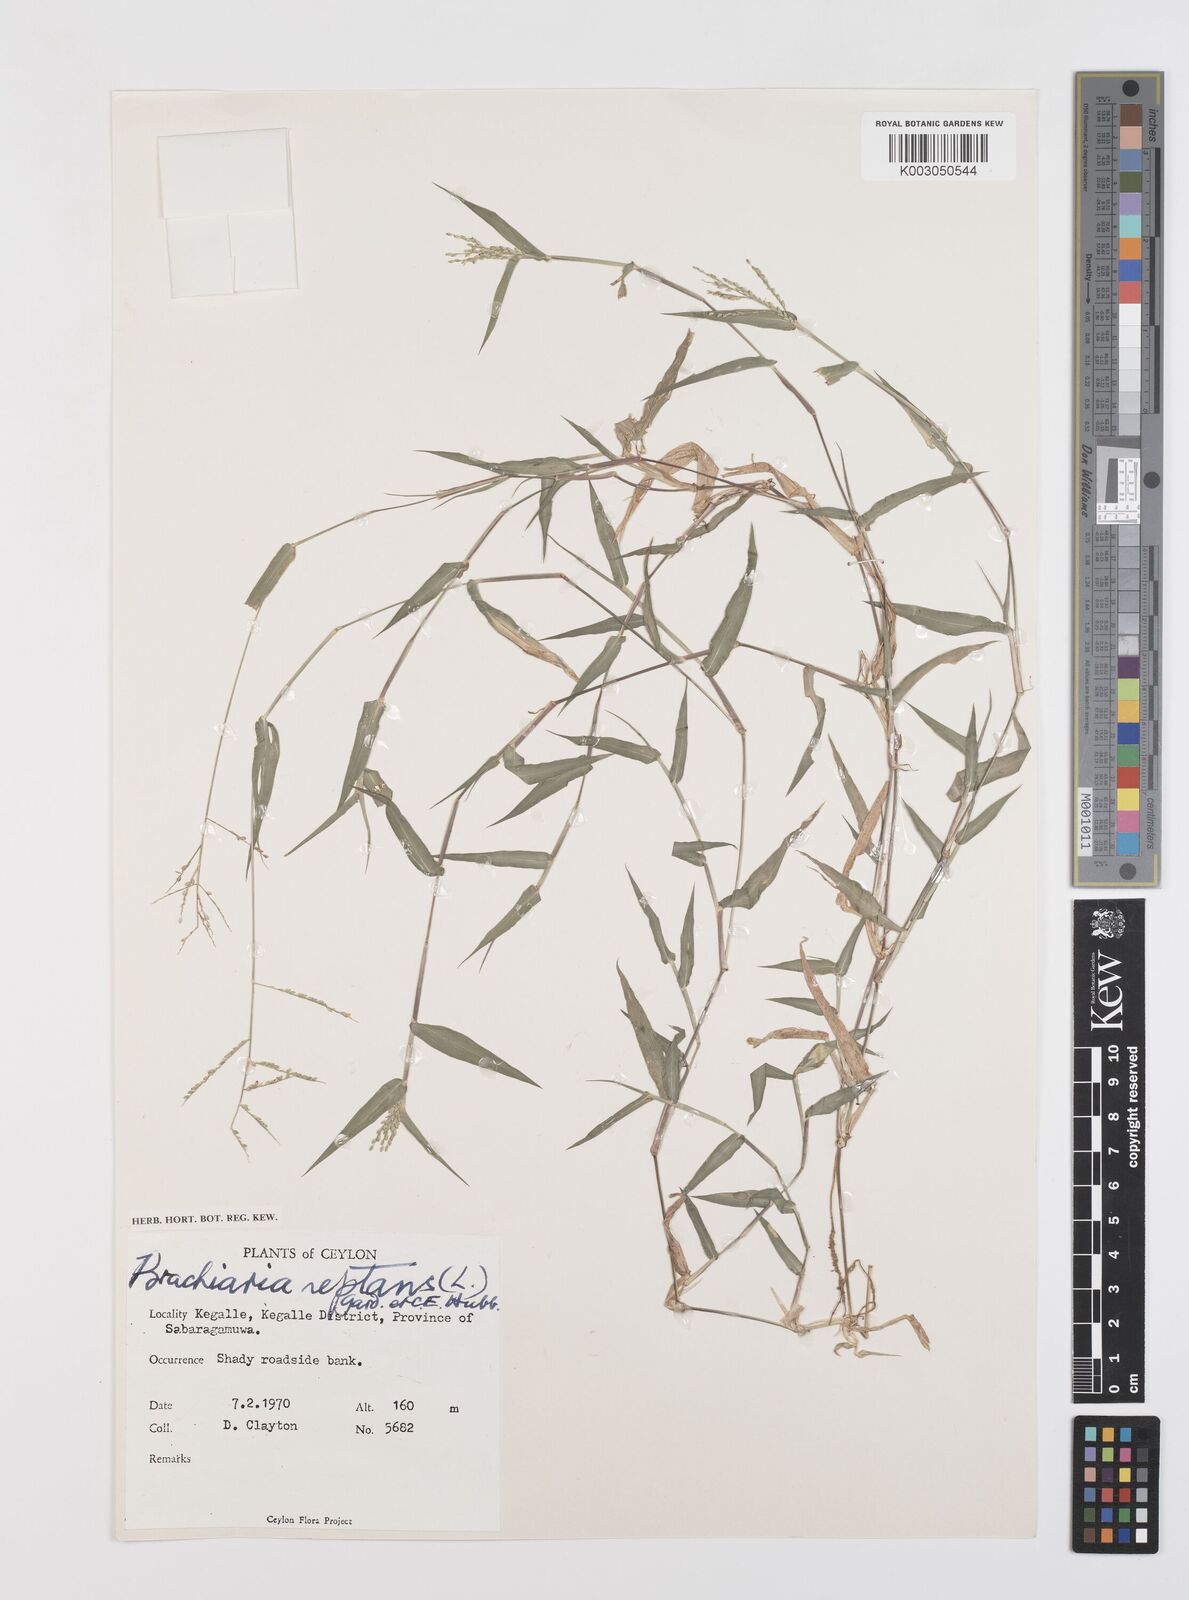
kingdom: Plantae
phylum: Tracheophyta
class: Liliopsida
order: Poales
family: Poaceae
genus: Urochloa
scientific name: Urochloa reptans
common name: Sprawling signalgrass
